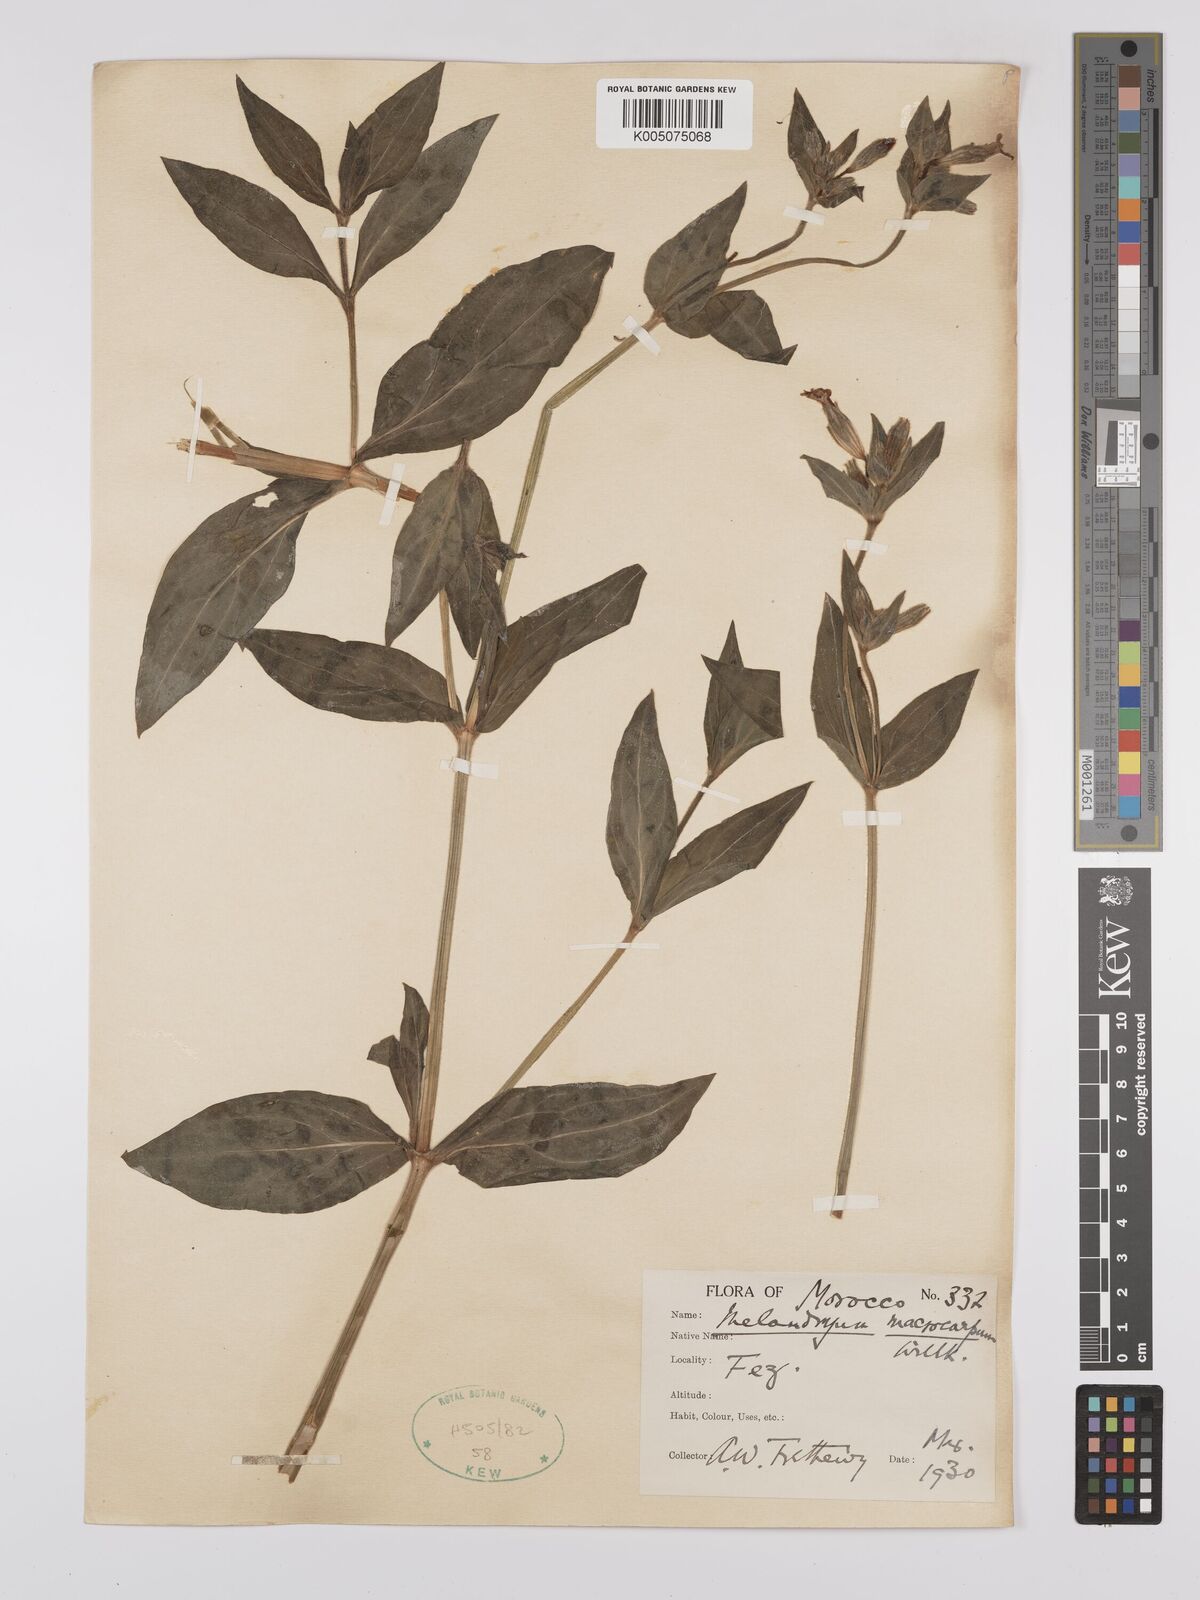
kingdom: Plantae
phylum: Tracheophyta
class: Magnoliopsida
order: Caryophyllales
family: Caryophyllaceae
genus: Silene
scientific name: Silene
